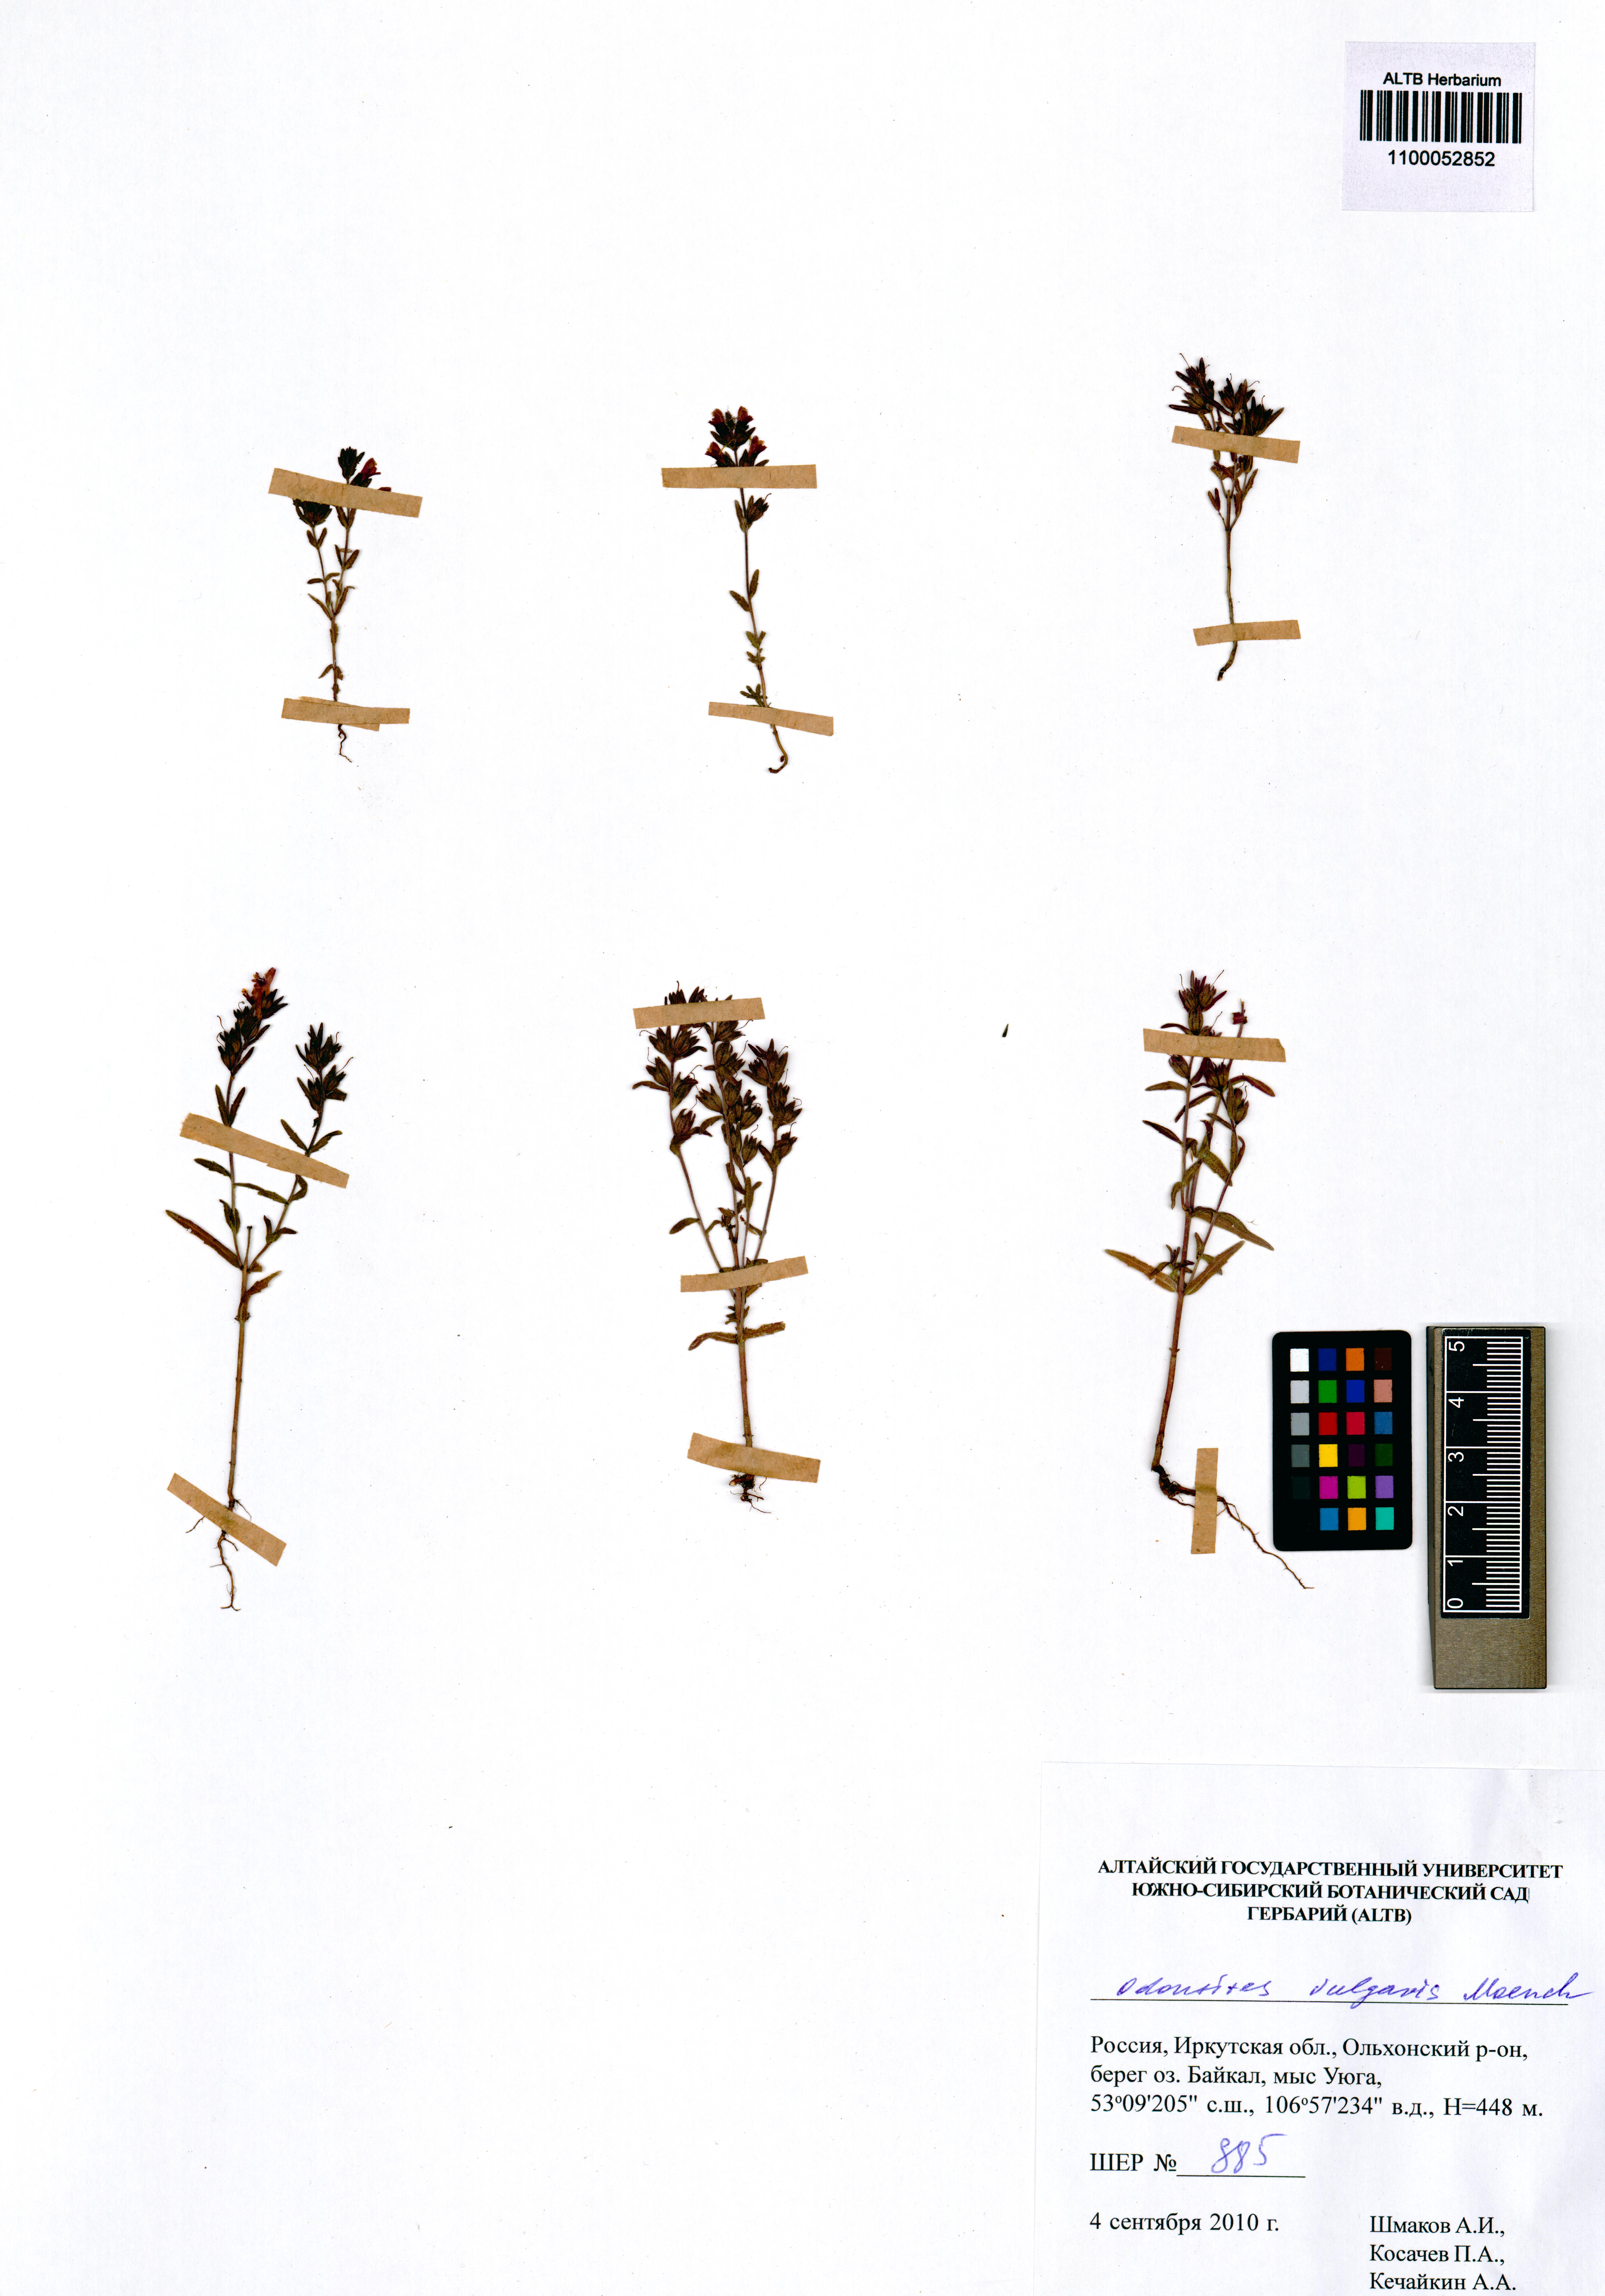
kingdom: Plantae
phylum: Tracheophyta
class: Magnoliopsida
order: Lamiales
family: Orobanchaceae
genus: Odontites
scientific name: Odontites vulgaris
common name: Broomrape
